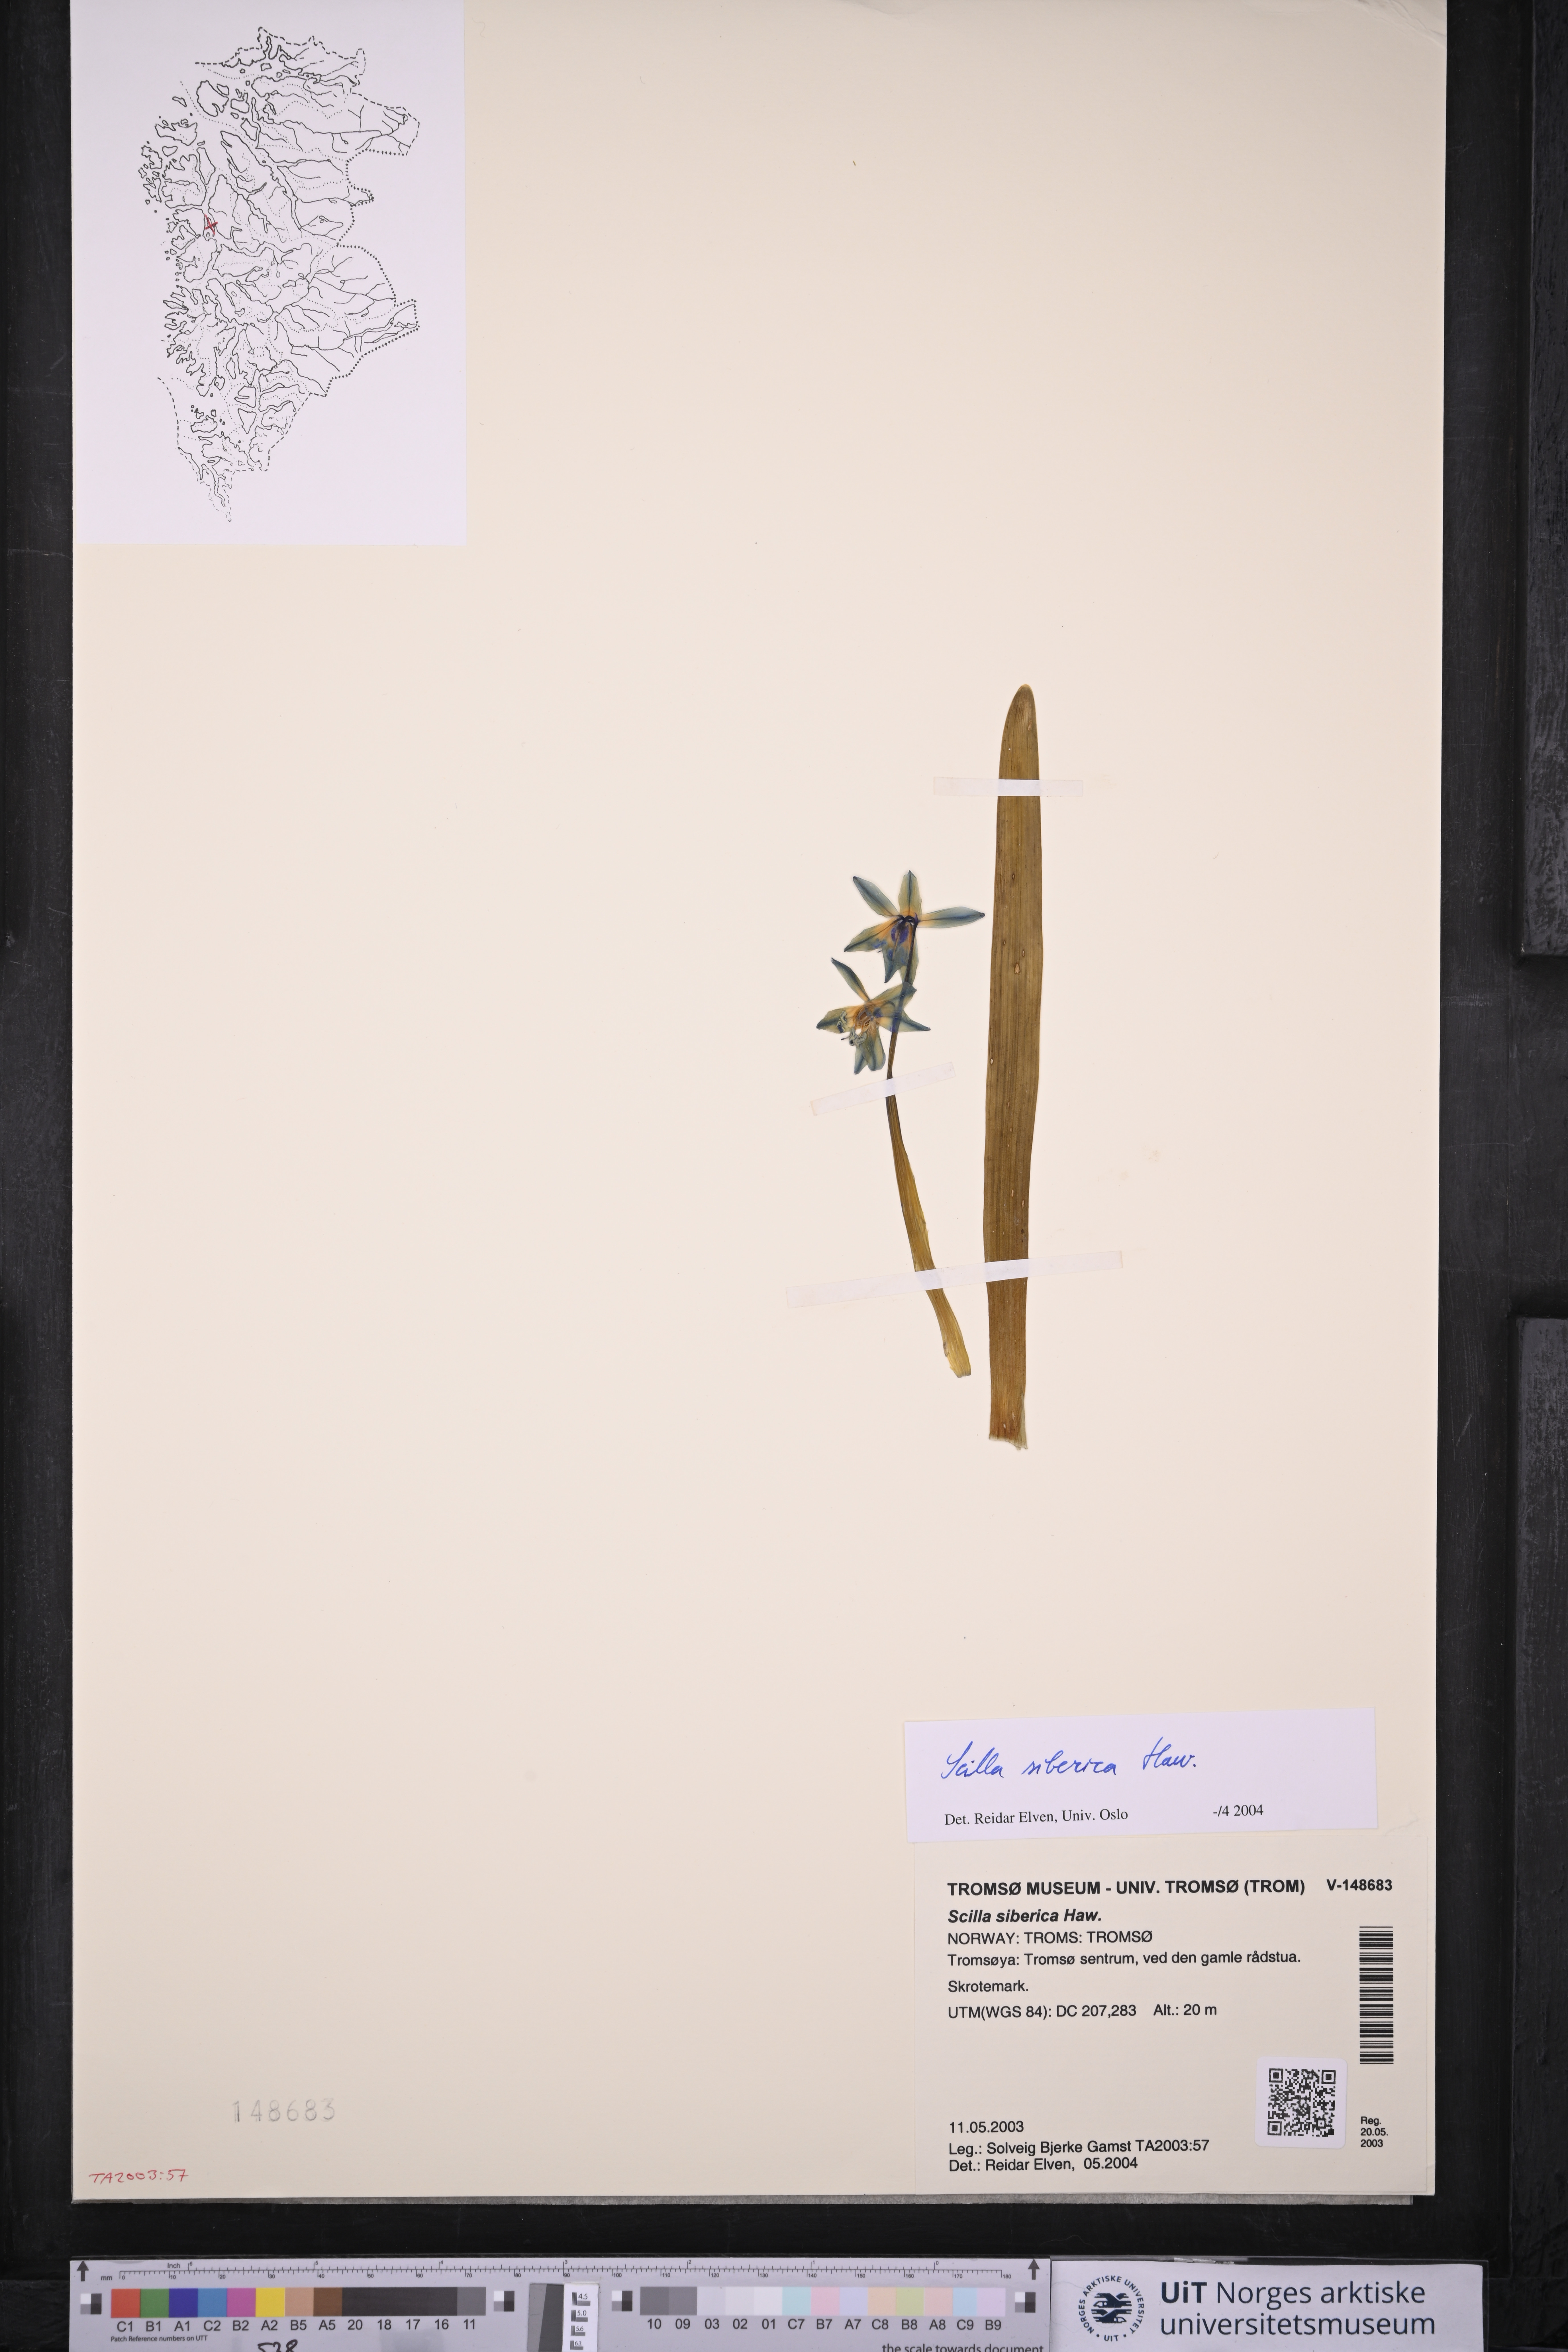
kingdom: Plantae
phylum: Tracheophyta
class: Liliopsida
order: Asparagales
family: Asparagaceae
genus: Scilla
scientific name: Scilla siberica
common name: Siberian squill
